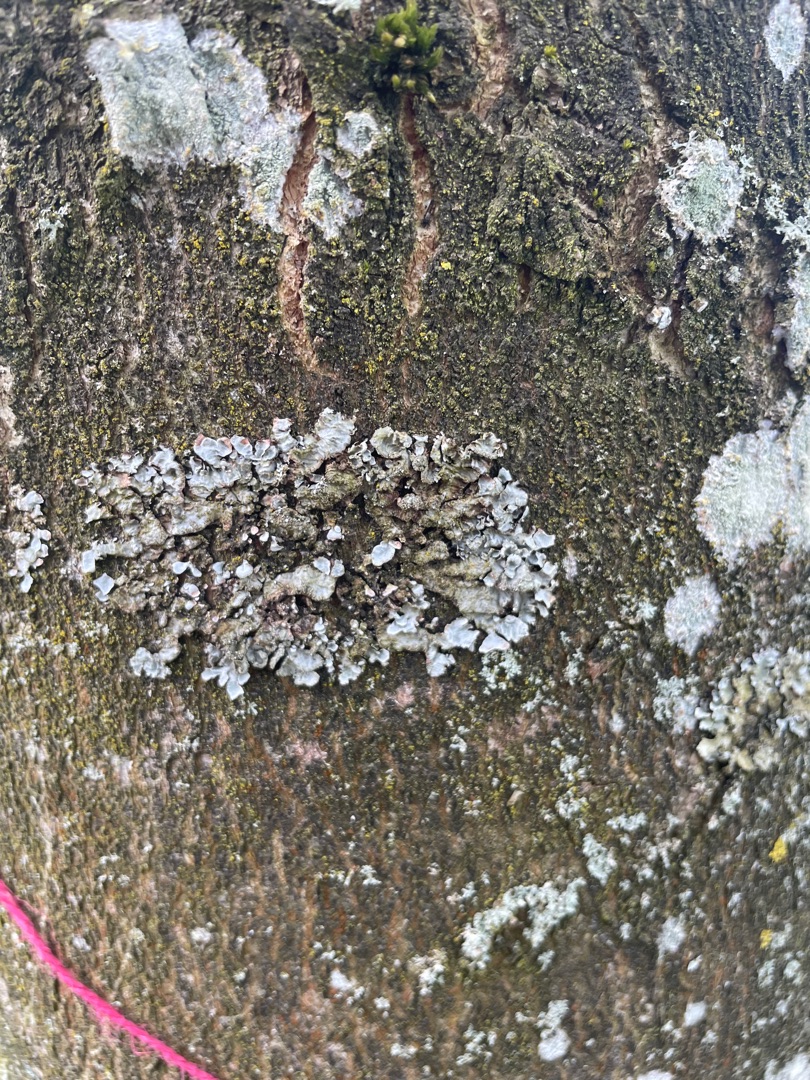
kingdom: Fungi
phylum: Ascomycota
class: Lecanoromycetes
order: Lecanorales
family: Parmeliaceae
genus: Parmelia
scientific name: Parmelia sulcata
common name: Rynket skållav
